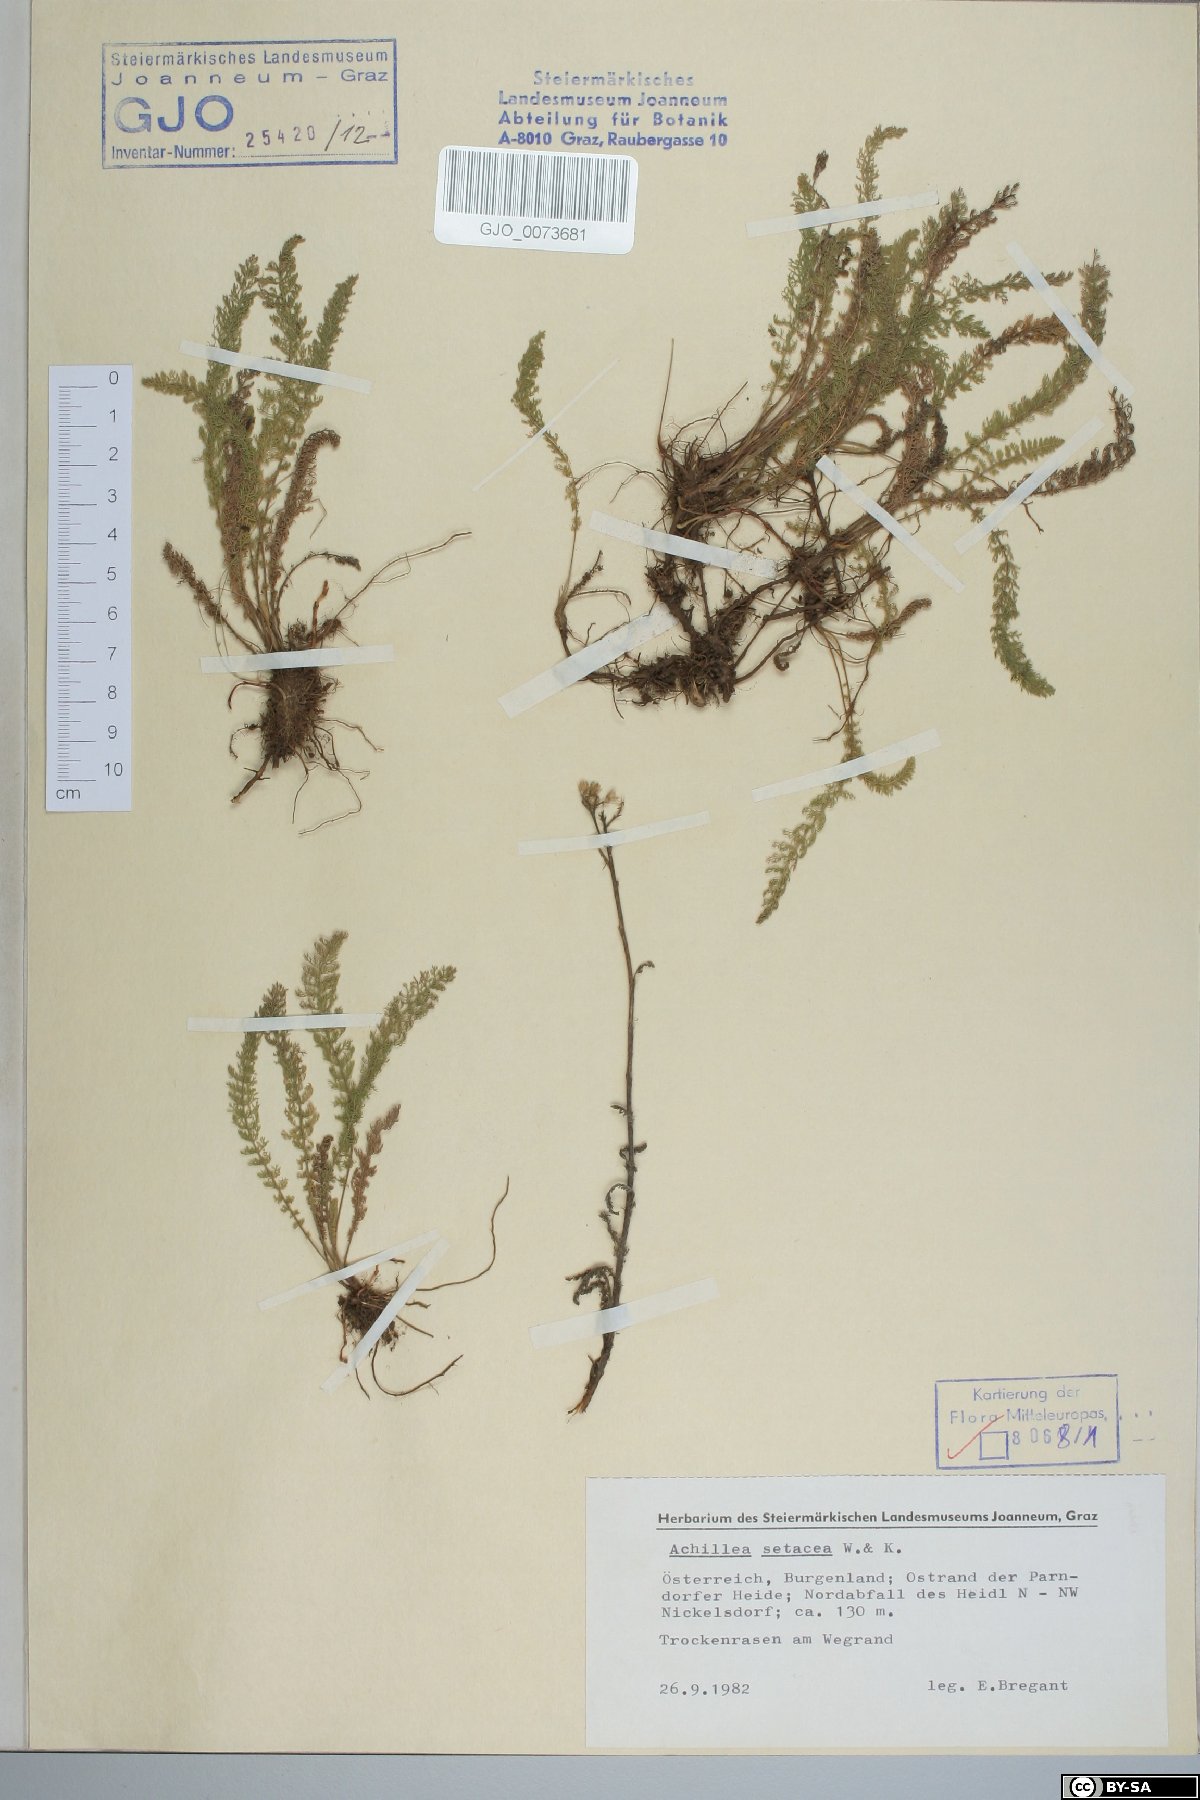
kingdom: Plantae
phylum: Tracheophyta
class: Magnoliopsida
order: Asterales
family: Asteraceae
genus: Achillea
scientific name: Achillea setacea
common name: Bristly yarrow
